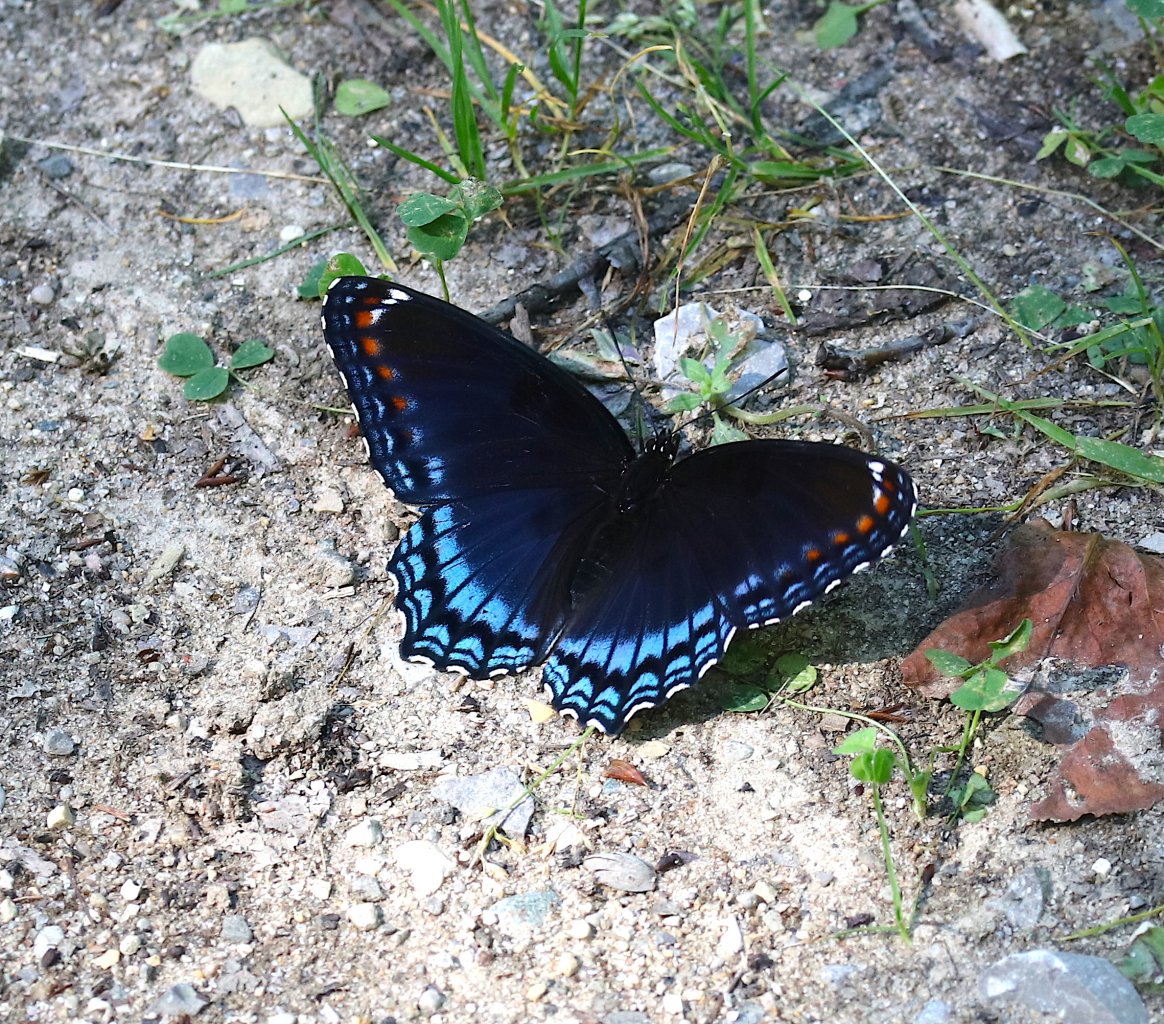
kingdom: Animalia
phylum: Arthropoda
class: Insecta
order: Lepidoptera
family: Nymphalidae
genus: Limenitis
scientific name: Limenitis astyanax
